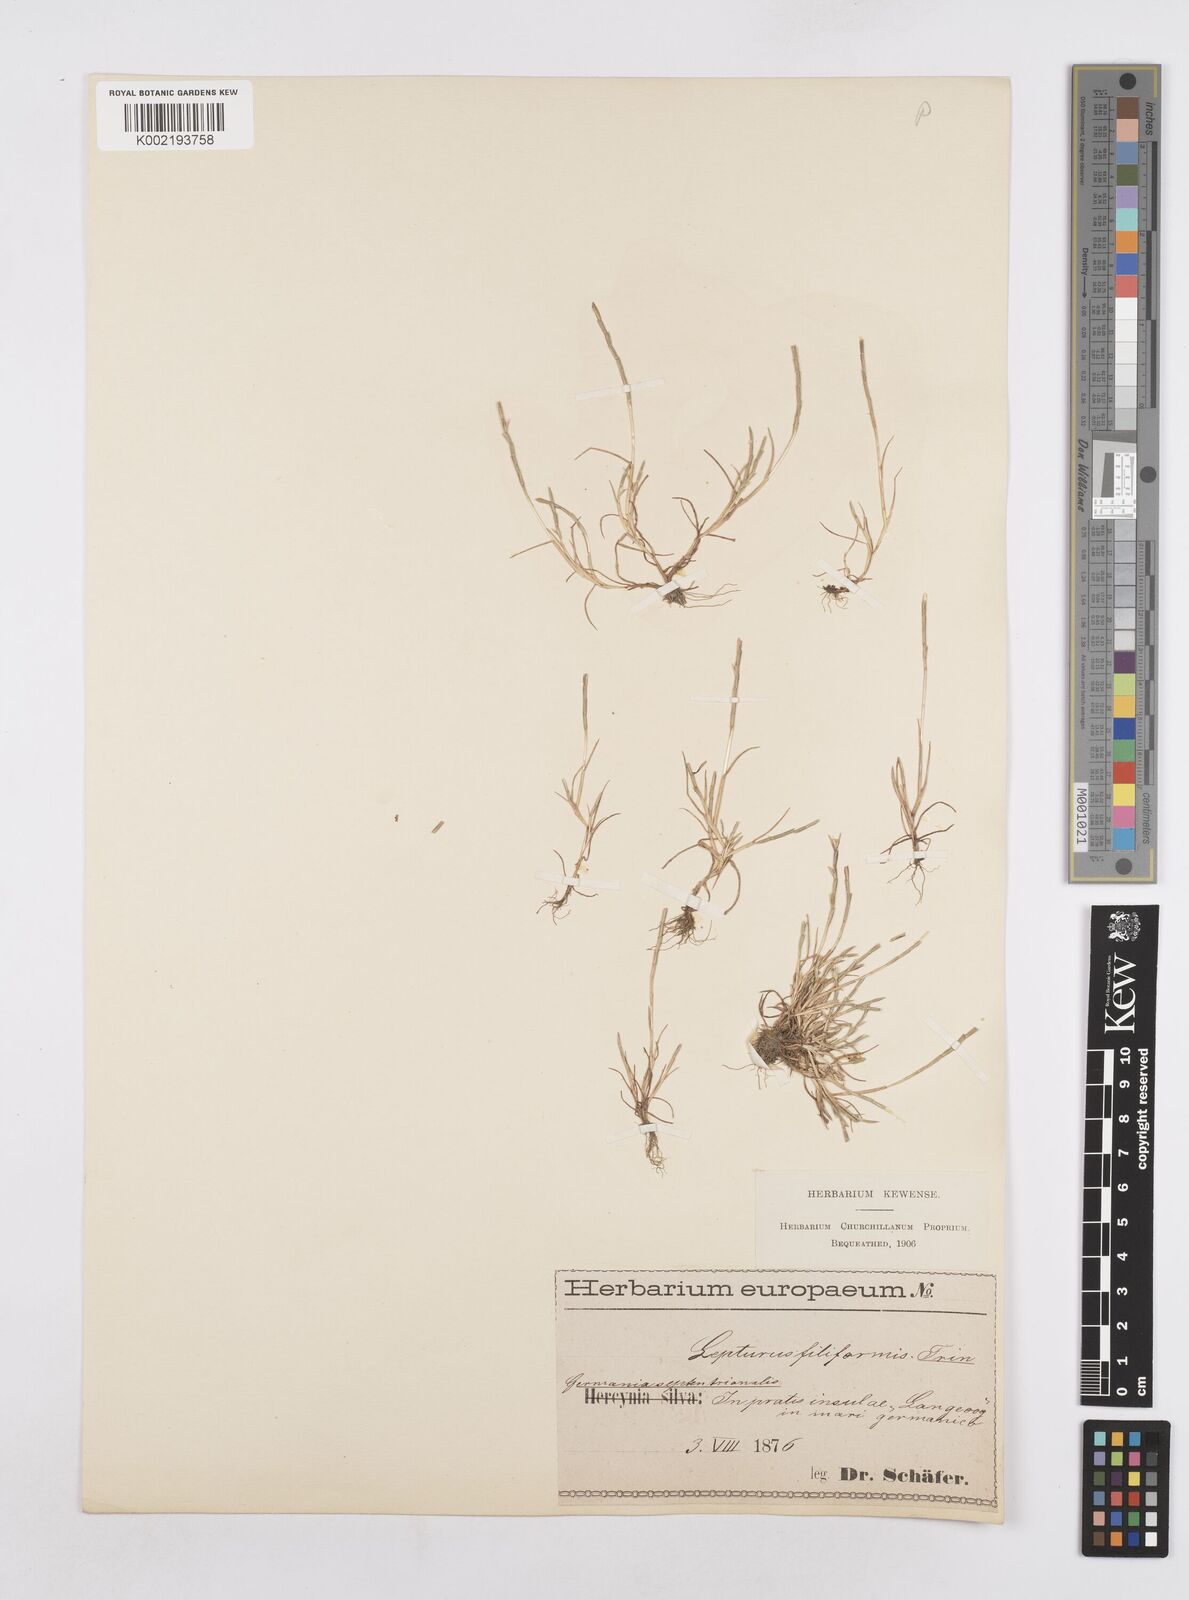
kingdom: Plantae
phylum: Tracheophyta
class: Liliopsida
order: Poales
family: Poaceae
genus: Parapholis
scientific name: Parapholis
